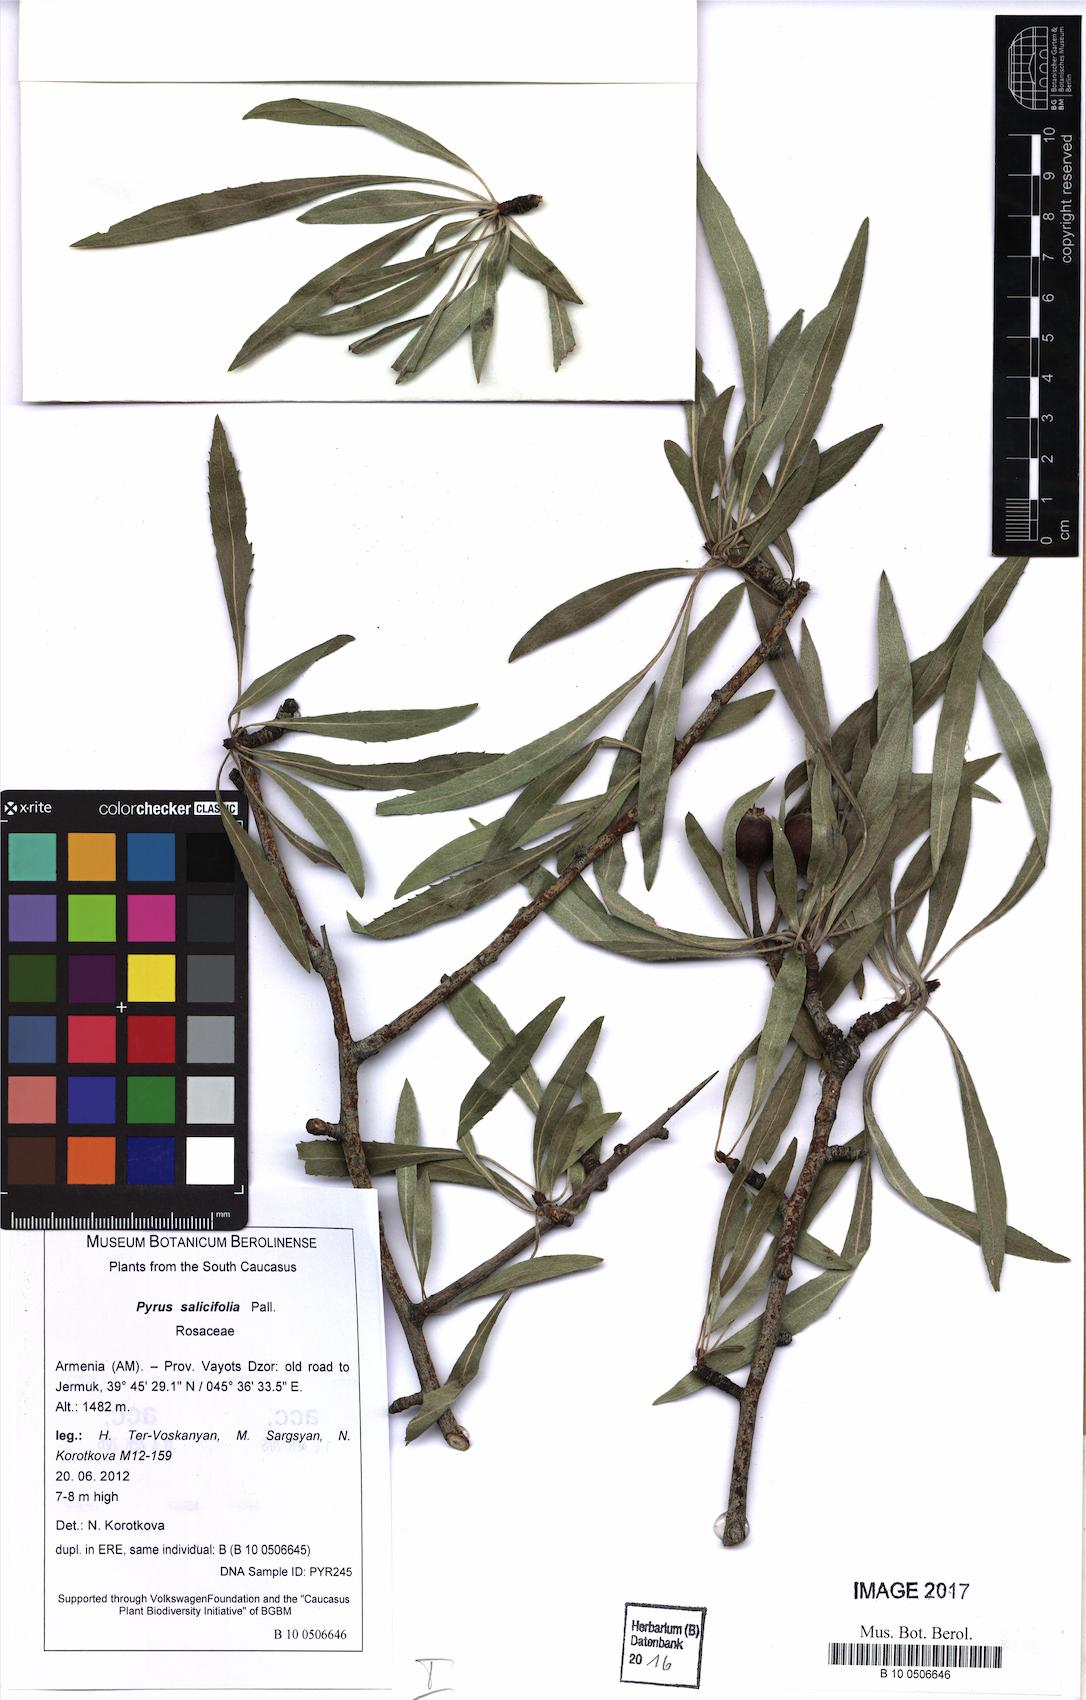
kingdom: Plantae
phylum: Tracheophyta
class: Magnoliopsida
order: Rosales
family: Rosaceae
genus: Pyrus
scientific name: Pyrus salicifolia
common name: Willow-leaved pear
